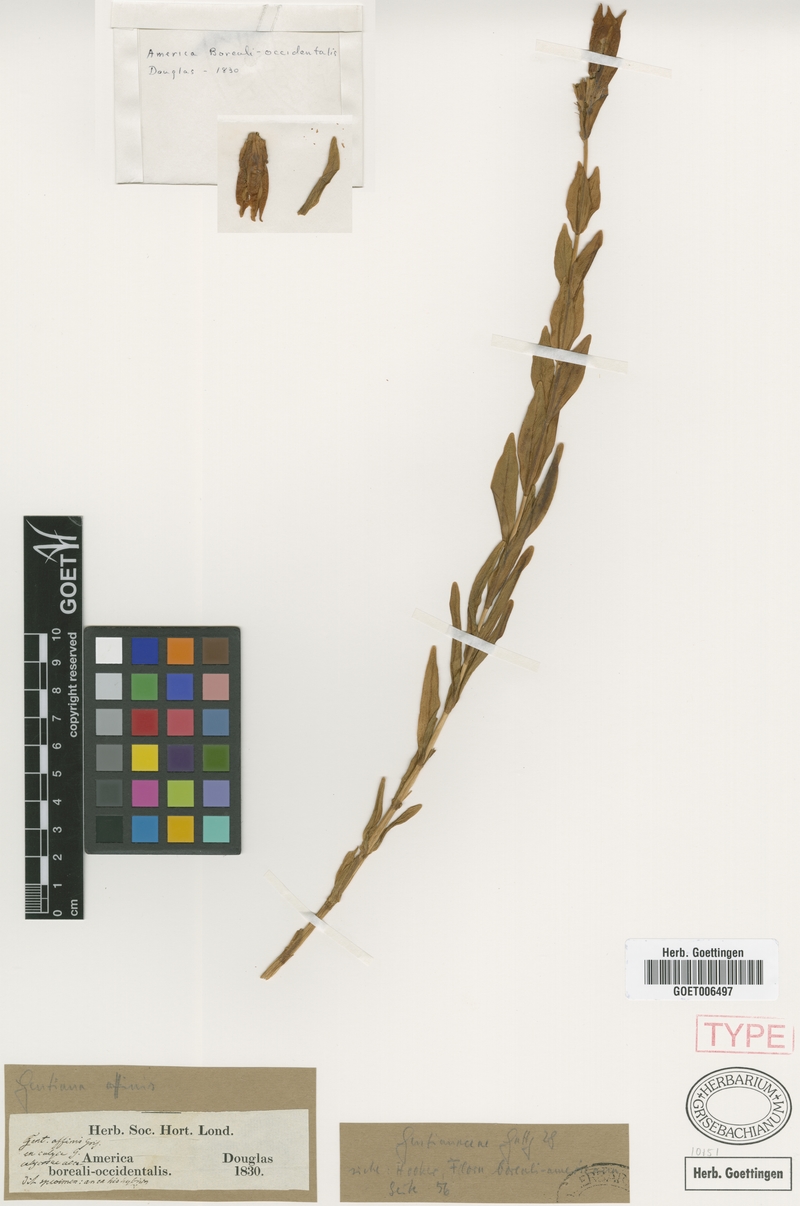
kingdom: Plantae
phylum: Tracheophyta
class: Magnoliopsida
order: Gentianales
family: Gentianaceae
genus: Gentiana
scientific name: Gentiana affinis
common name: Rocky mountain gentian
